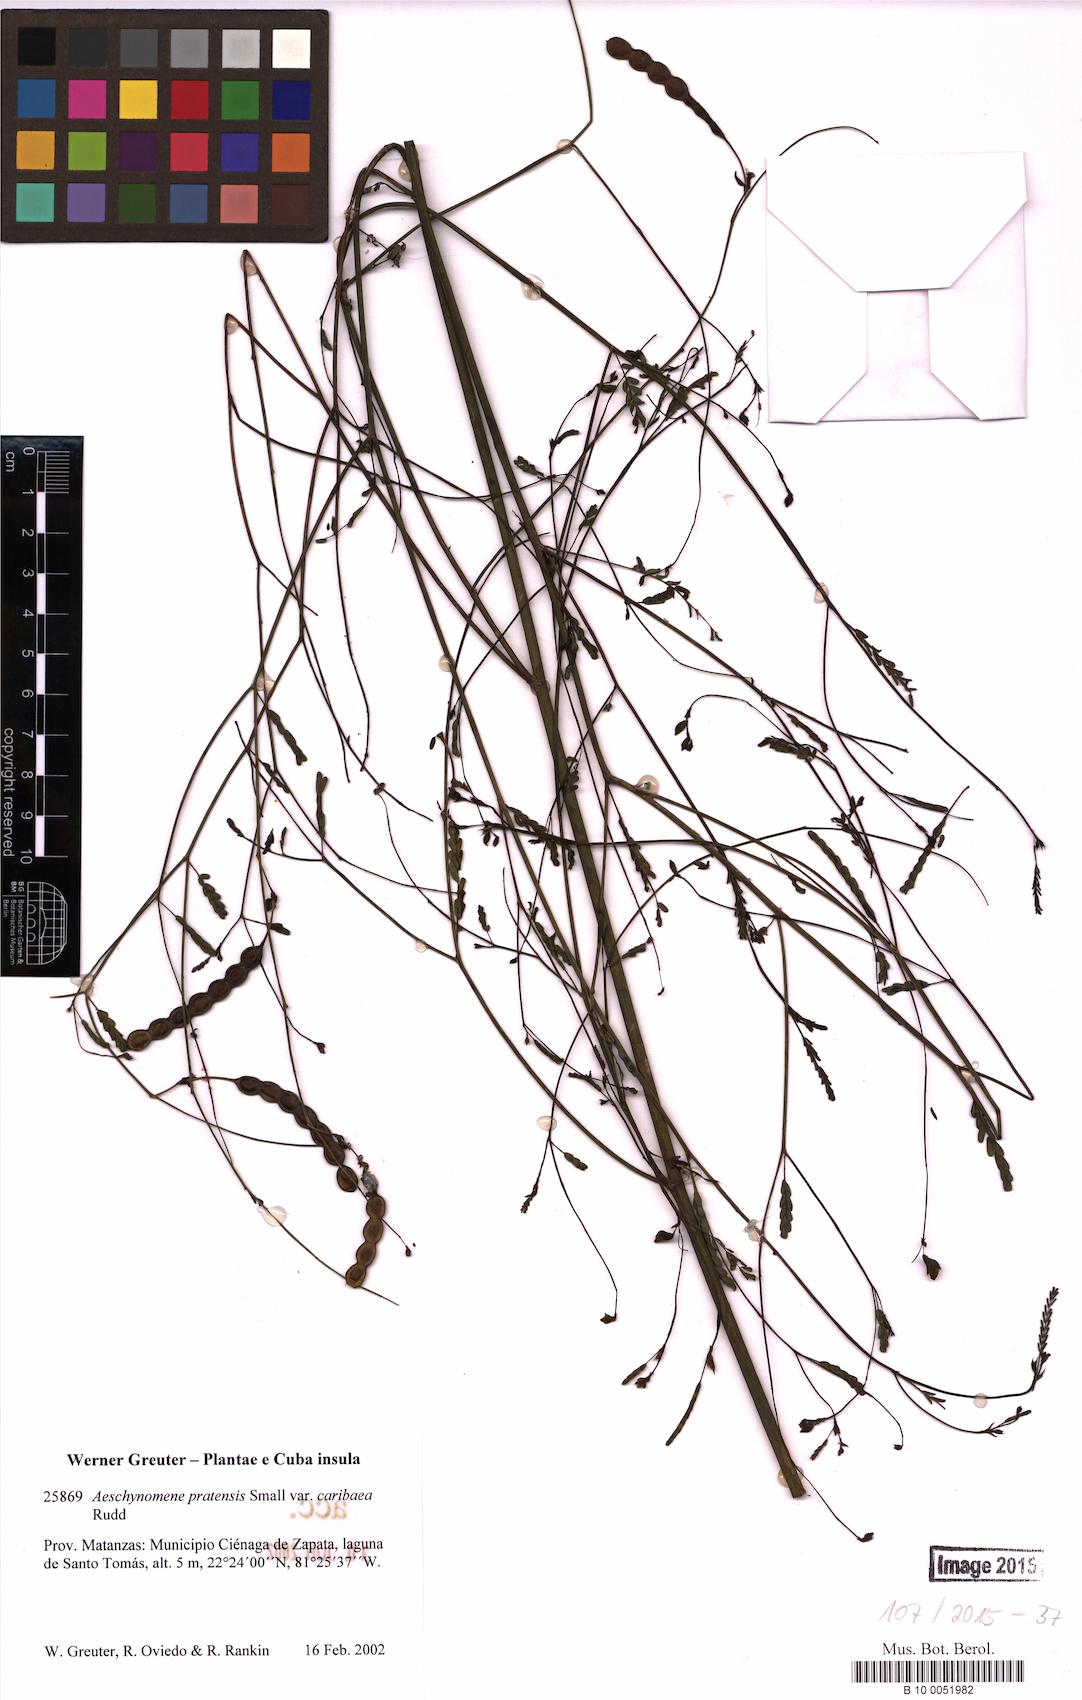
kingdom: Plantae
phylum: Tracheophyta
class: Magnoliopsida
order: Fabales
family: Fabaceae
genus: Aeschynomene
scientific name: Aeschynomene pratensis
